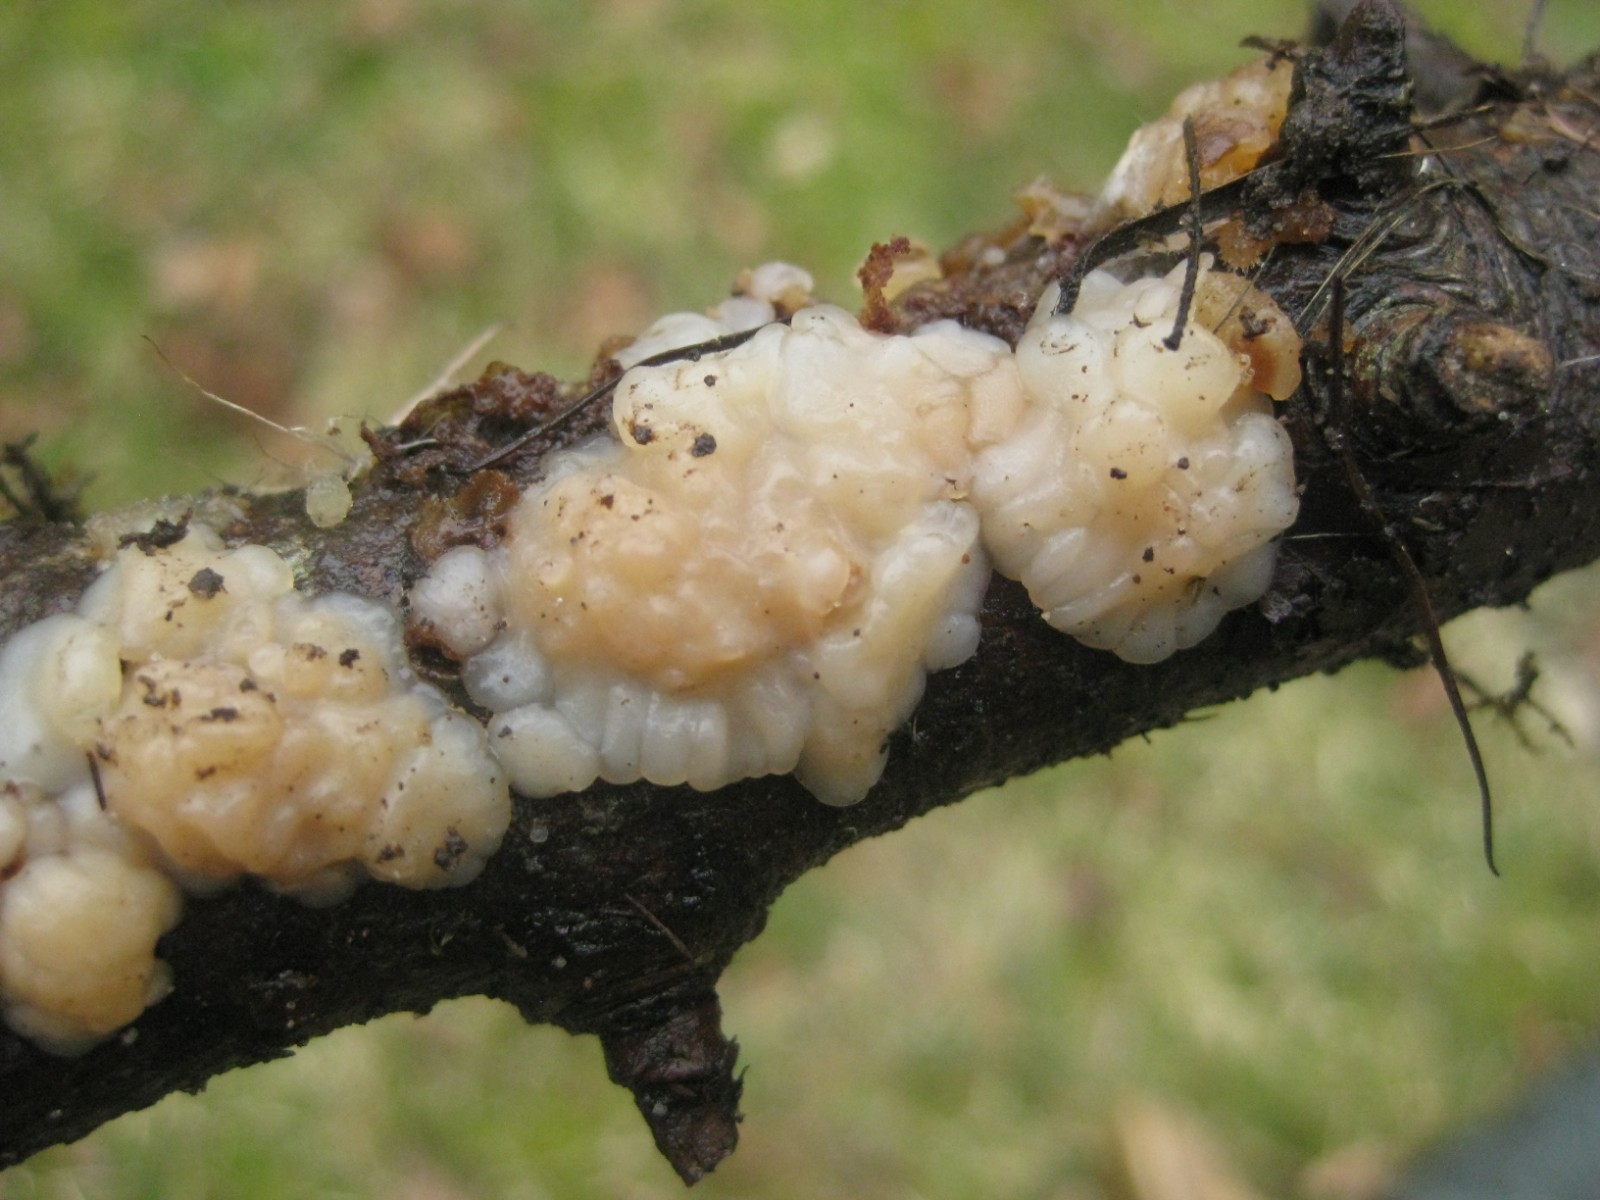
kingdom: Fungi
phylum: Basidiomycota
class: Agaricomycetes
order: Auriculariales
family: Auriculariaceae
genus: Exidia
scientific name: Exidia thuretiana
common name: hvidlig bævretop
